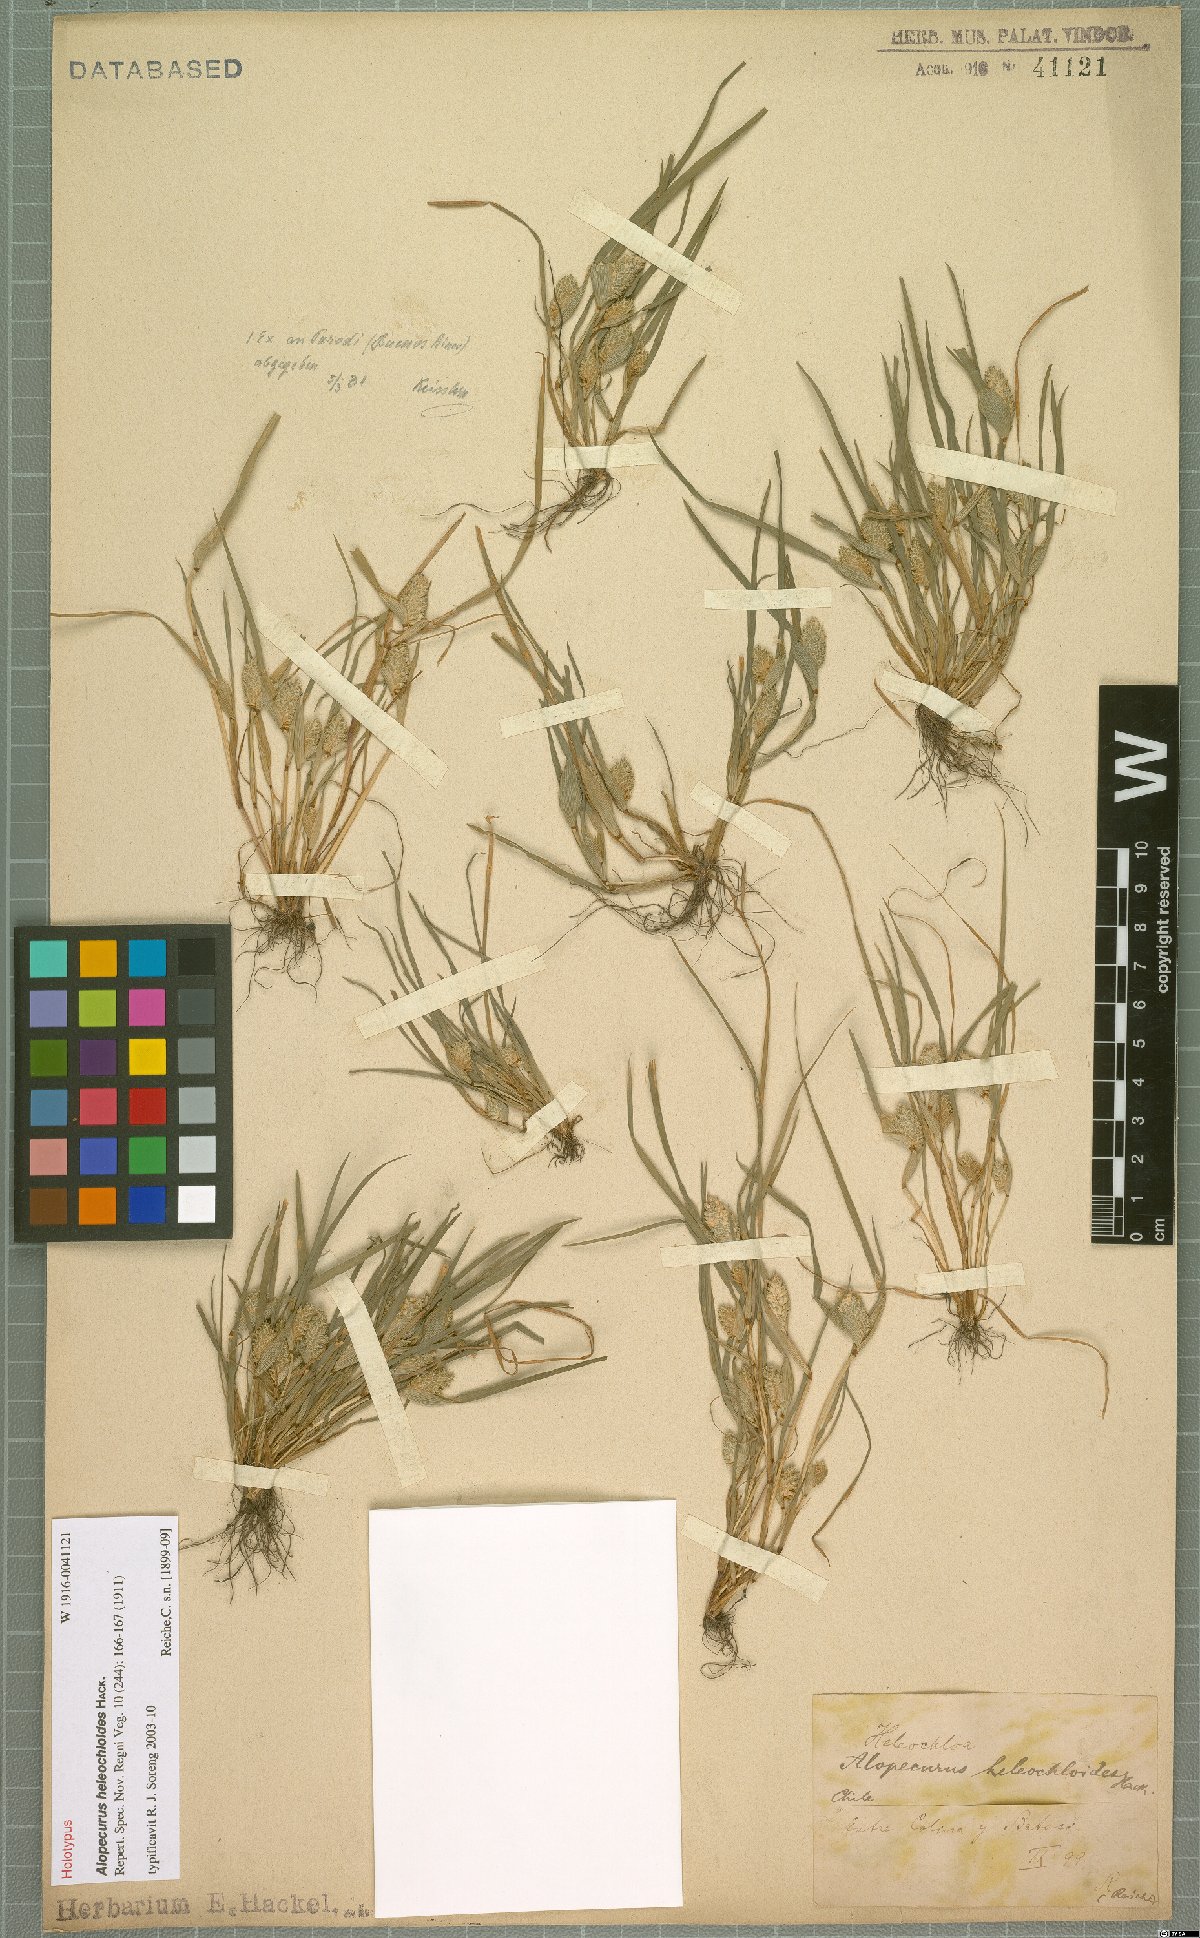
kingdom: Plantae
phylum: Tracheophyta
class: Liliopsida
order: Poales
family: Poaceae
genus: Alopecurus
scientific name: Alopecurus heleochloides
